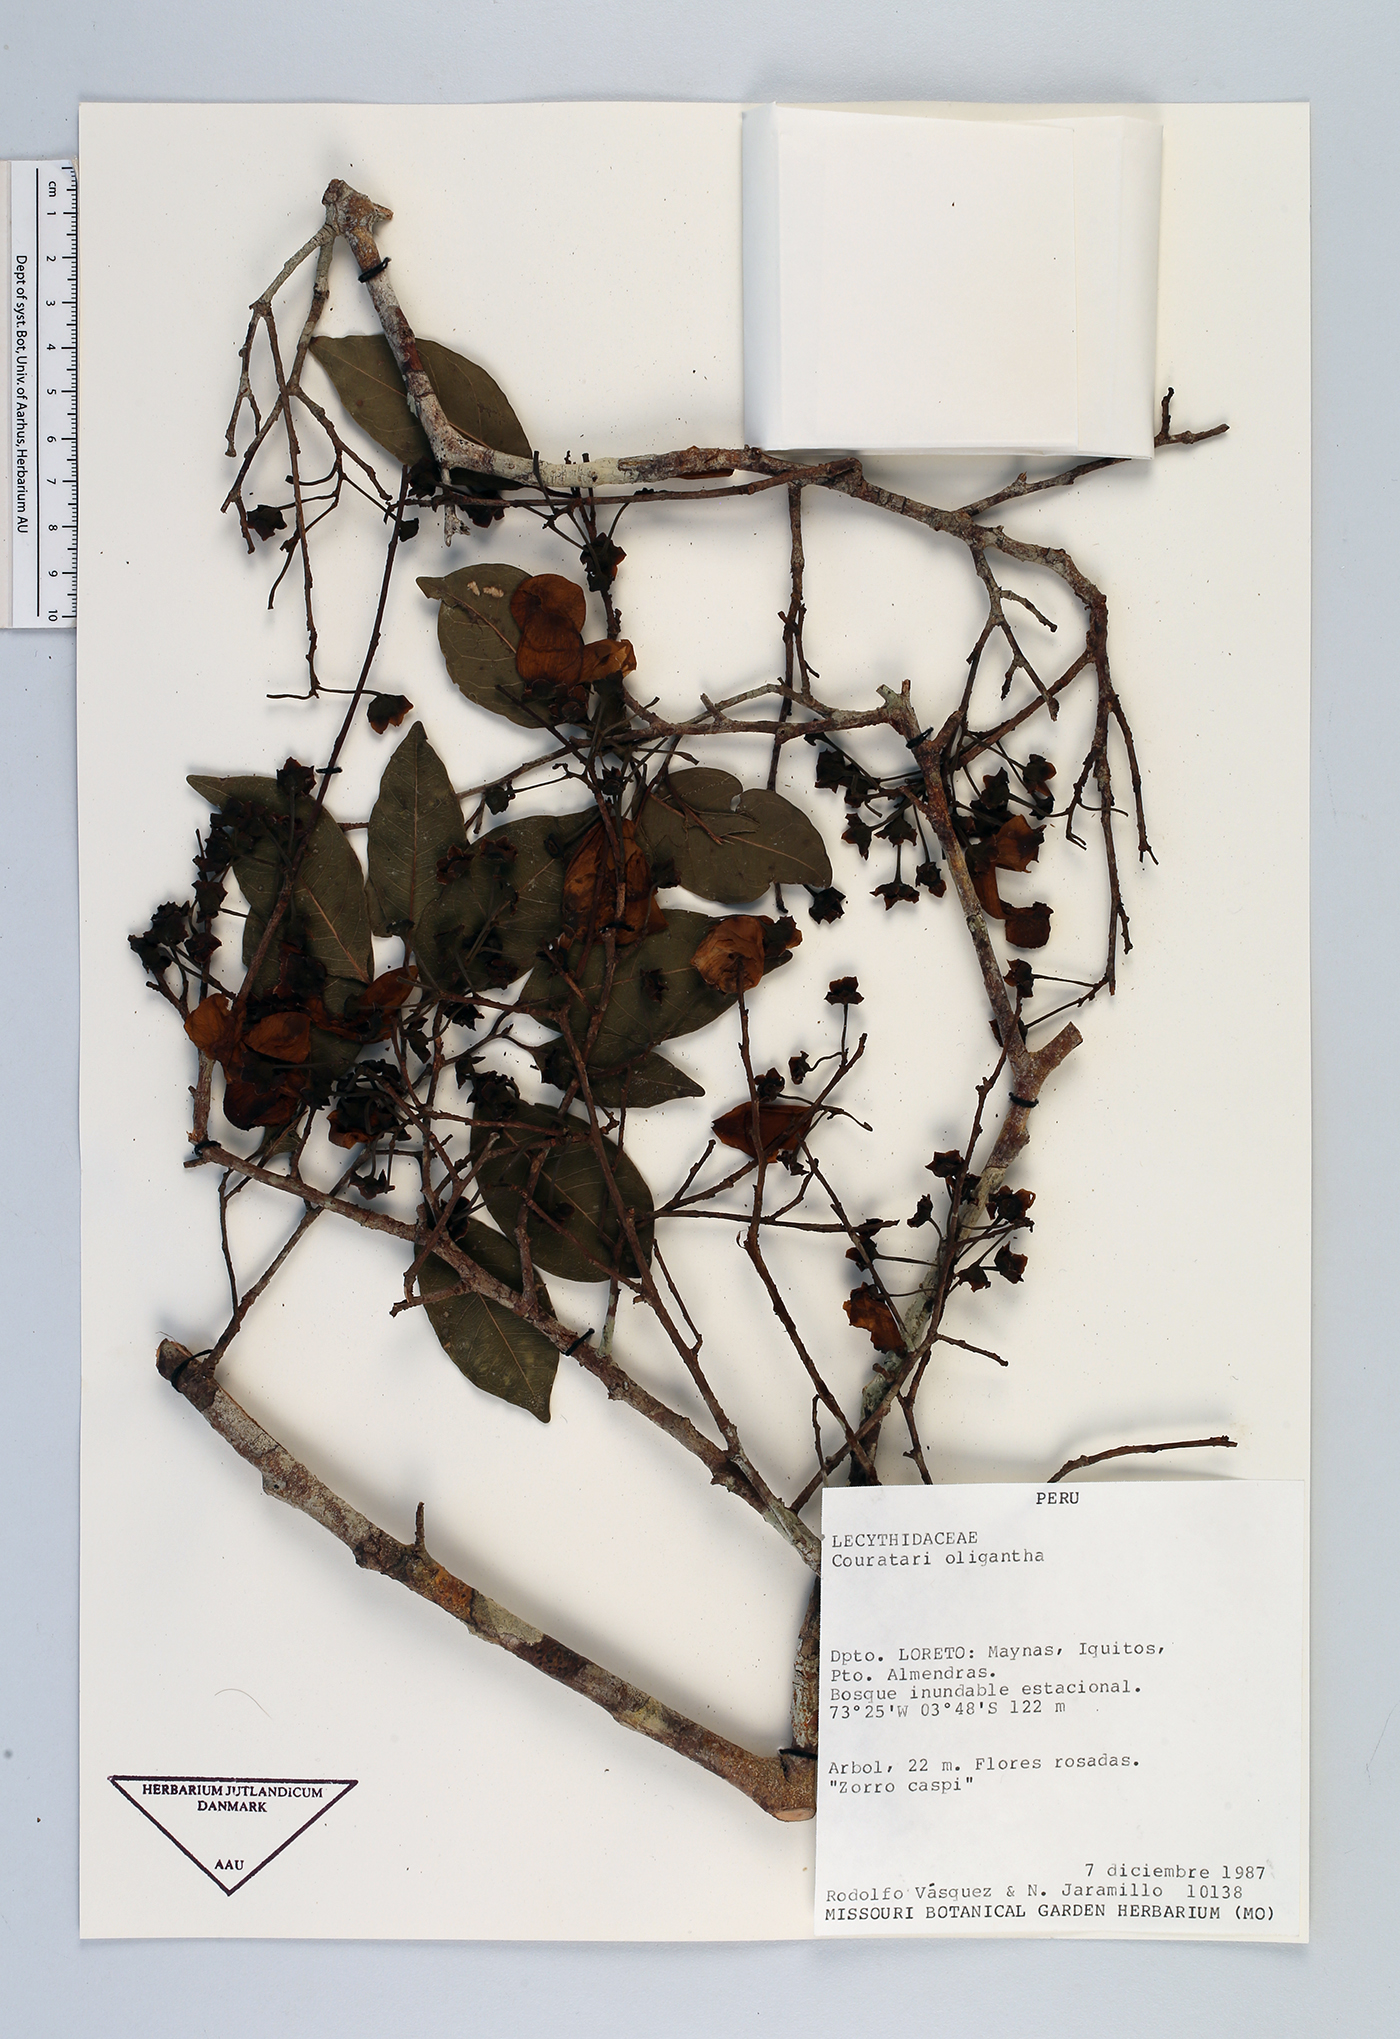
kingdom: Plantae
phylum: Tracheophyta
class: Magnoliopsida
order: Ericales
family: Lecythidaceae
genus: Couratari
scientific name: Couratari oligantha
